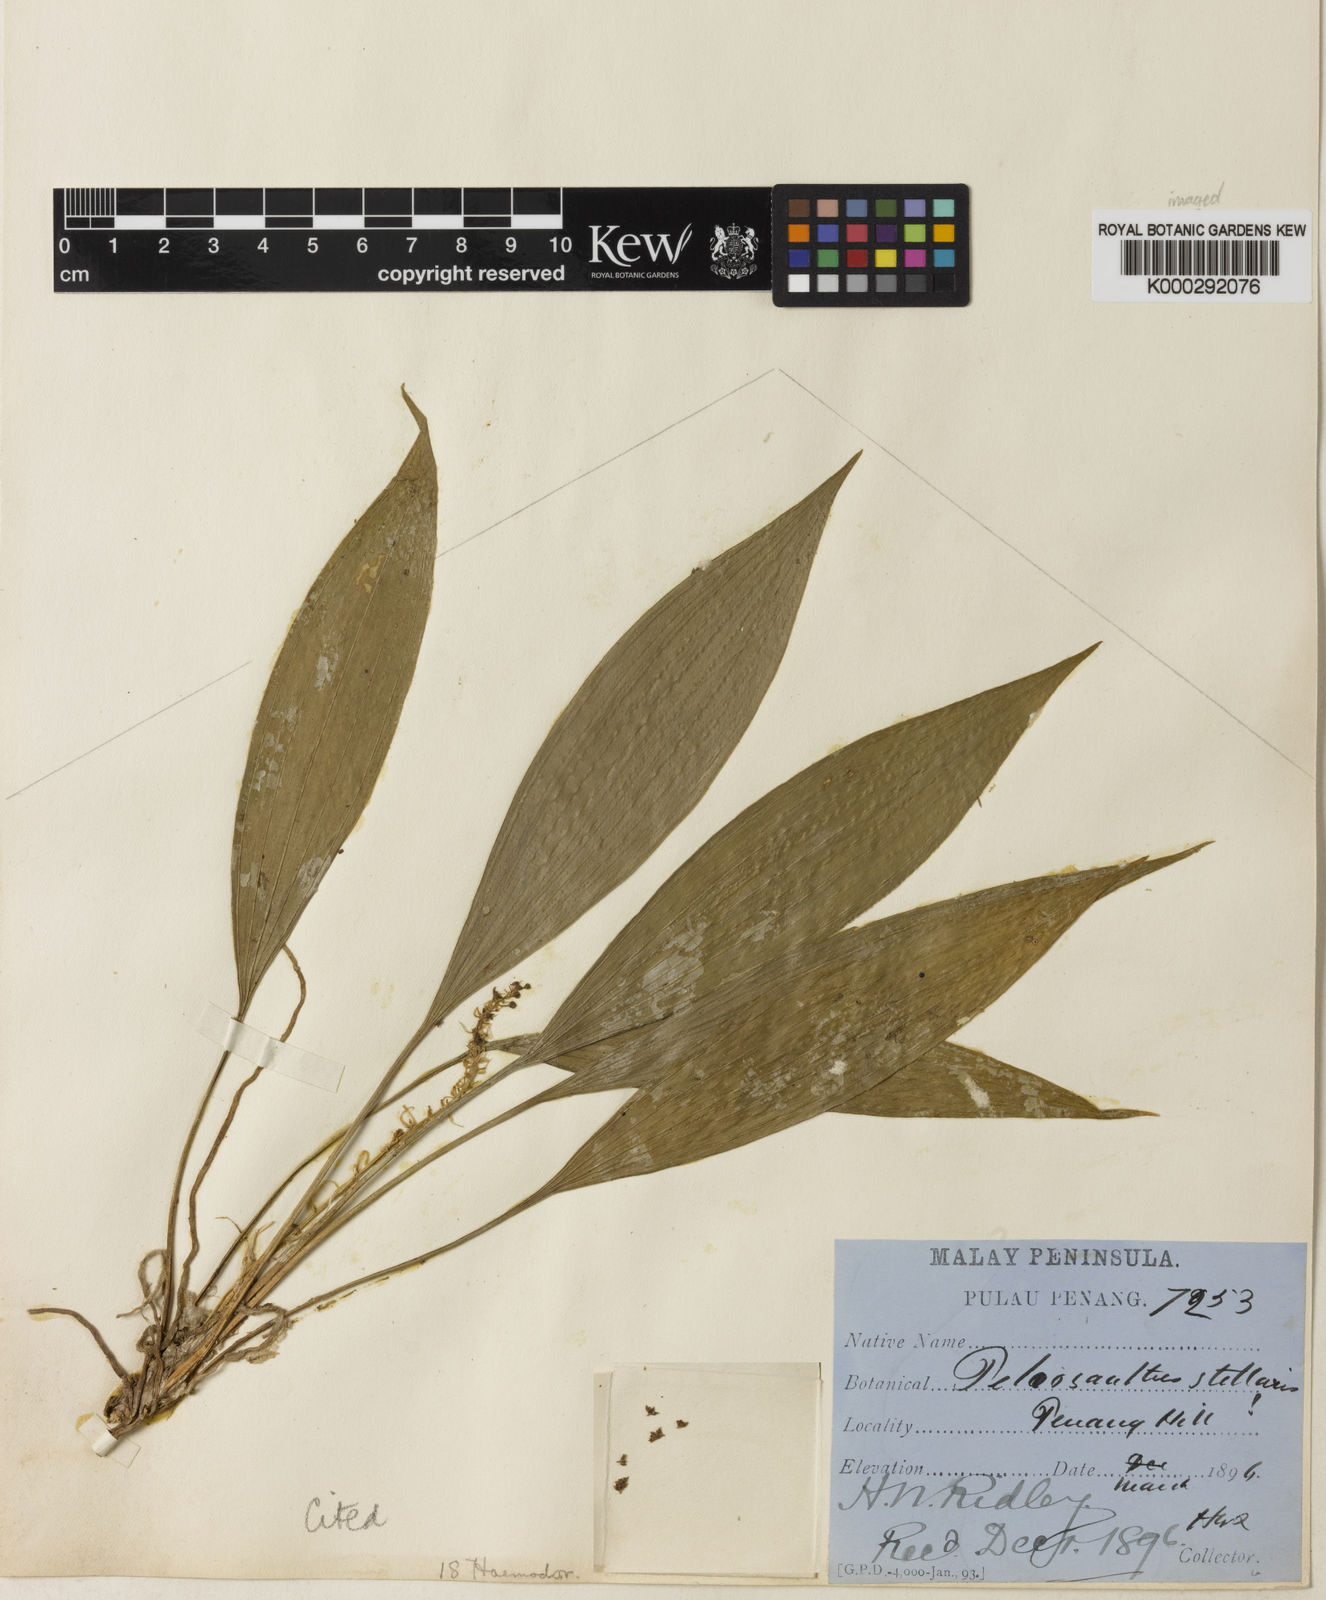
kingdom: Plantae
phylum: Tracheophyta
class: Liliopsida
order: Asparagales
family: Asparagaceae
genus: Peliosanthes
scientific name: Peliosanthes teta
